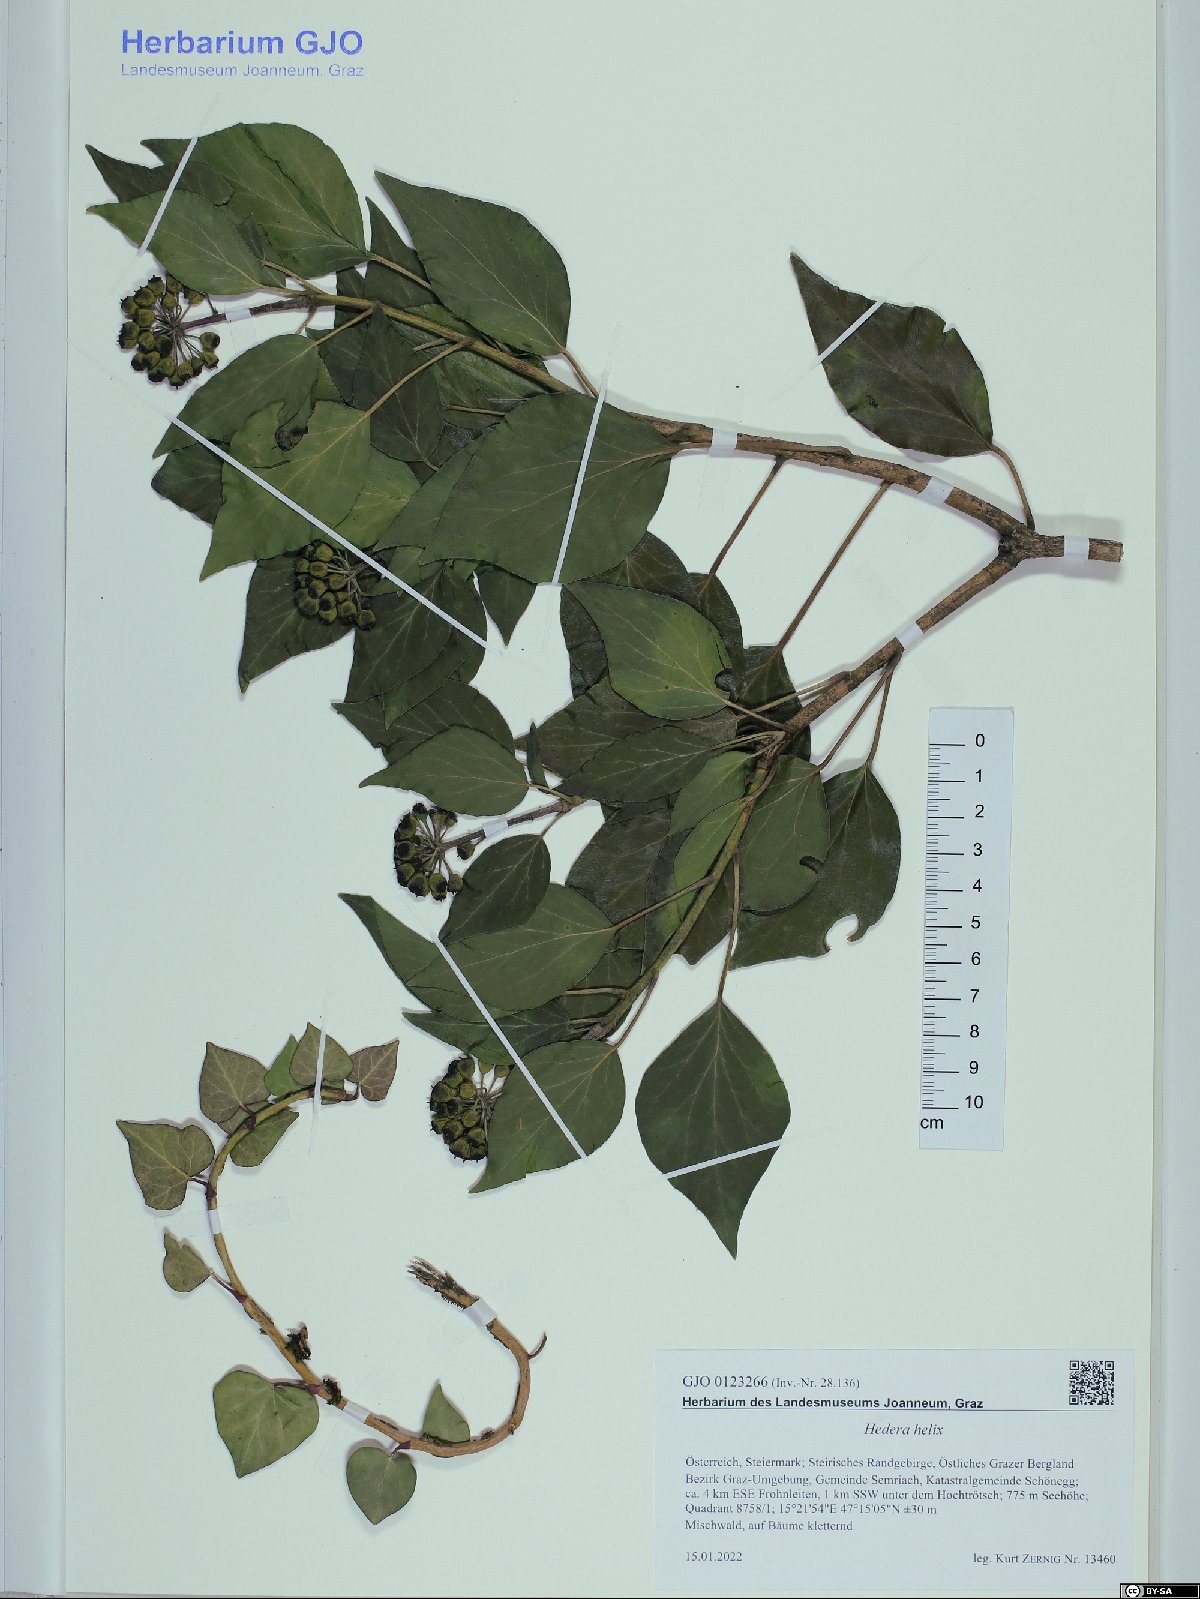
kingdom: Plantae
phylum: Tracheophyta
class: Magnoliopsida
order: Apiales
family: Araliaceae
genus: Hedera
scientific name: Hedera helix
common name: Ivy
